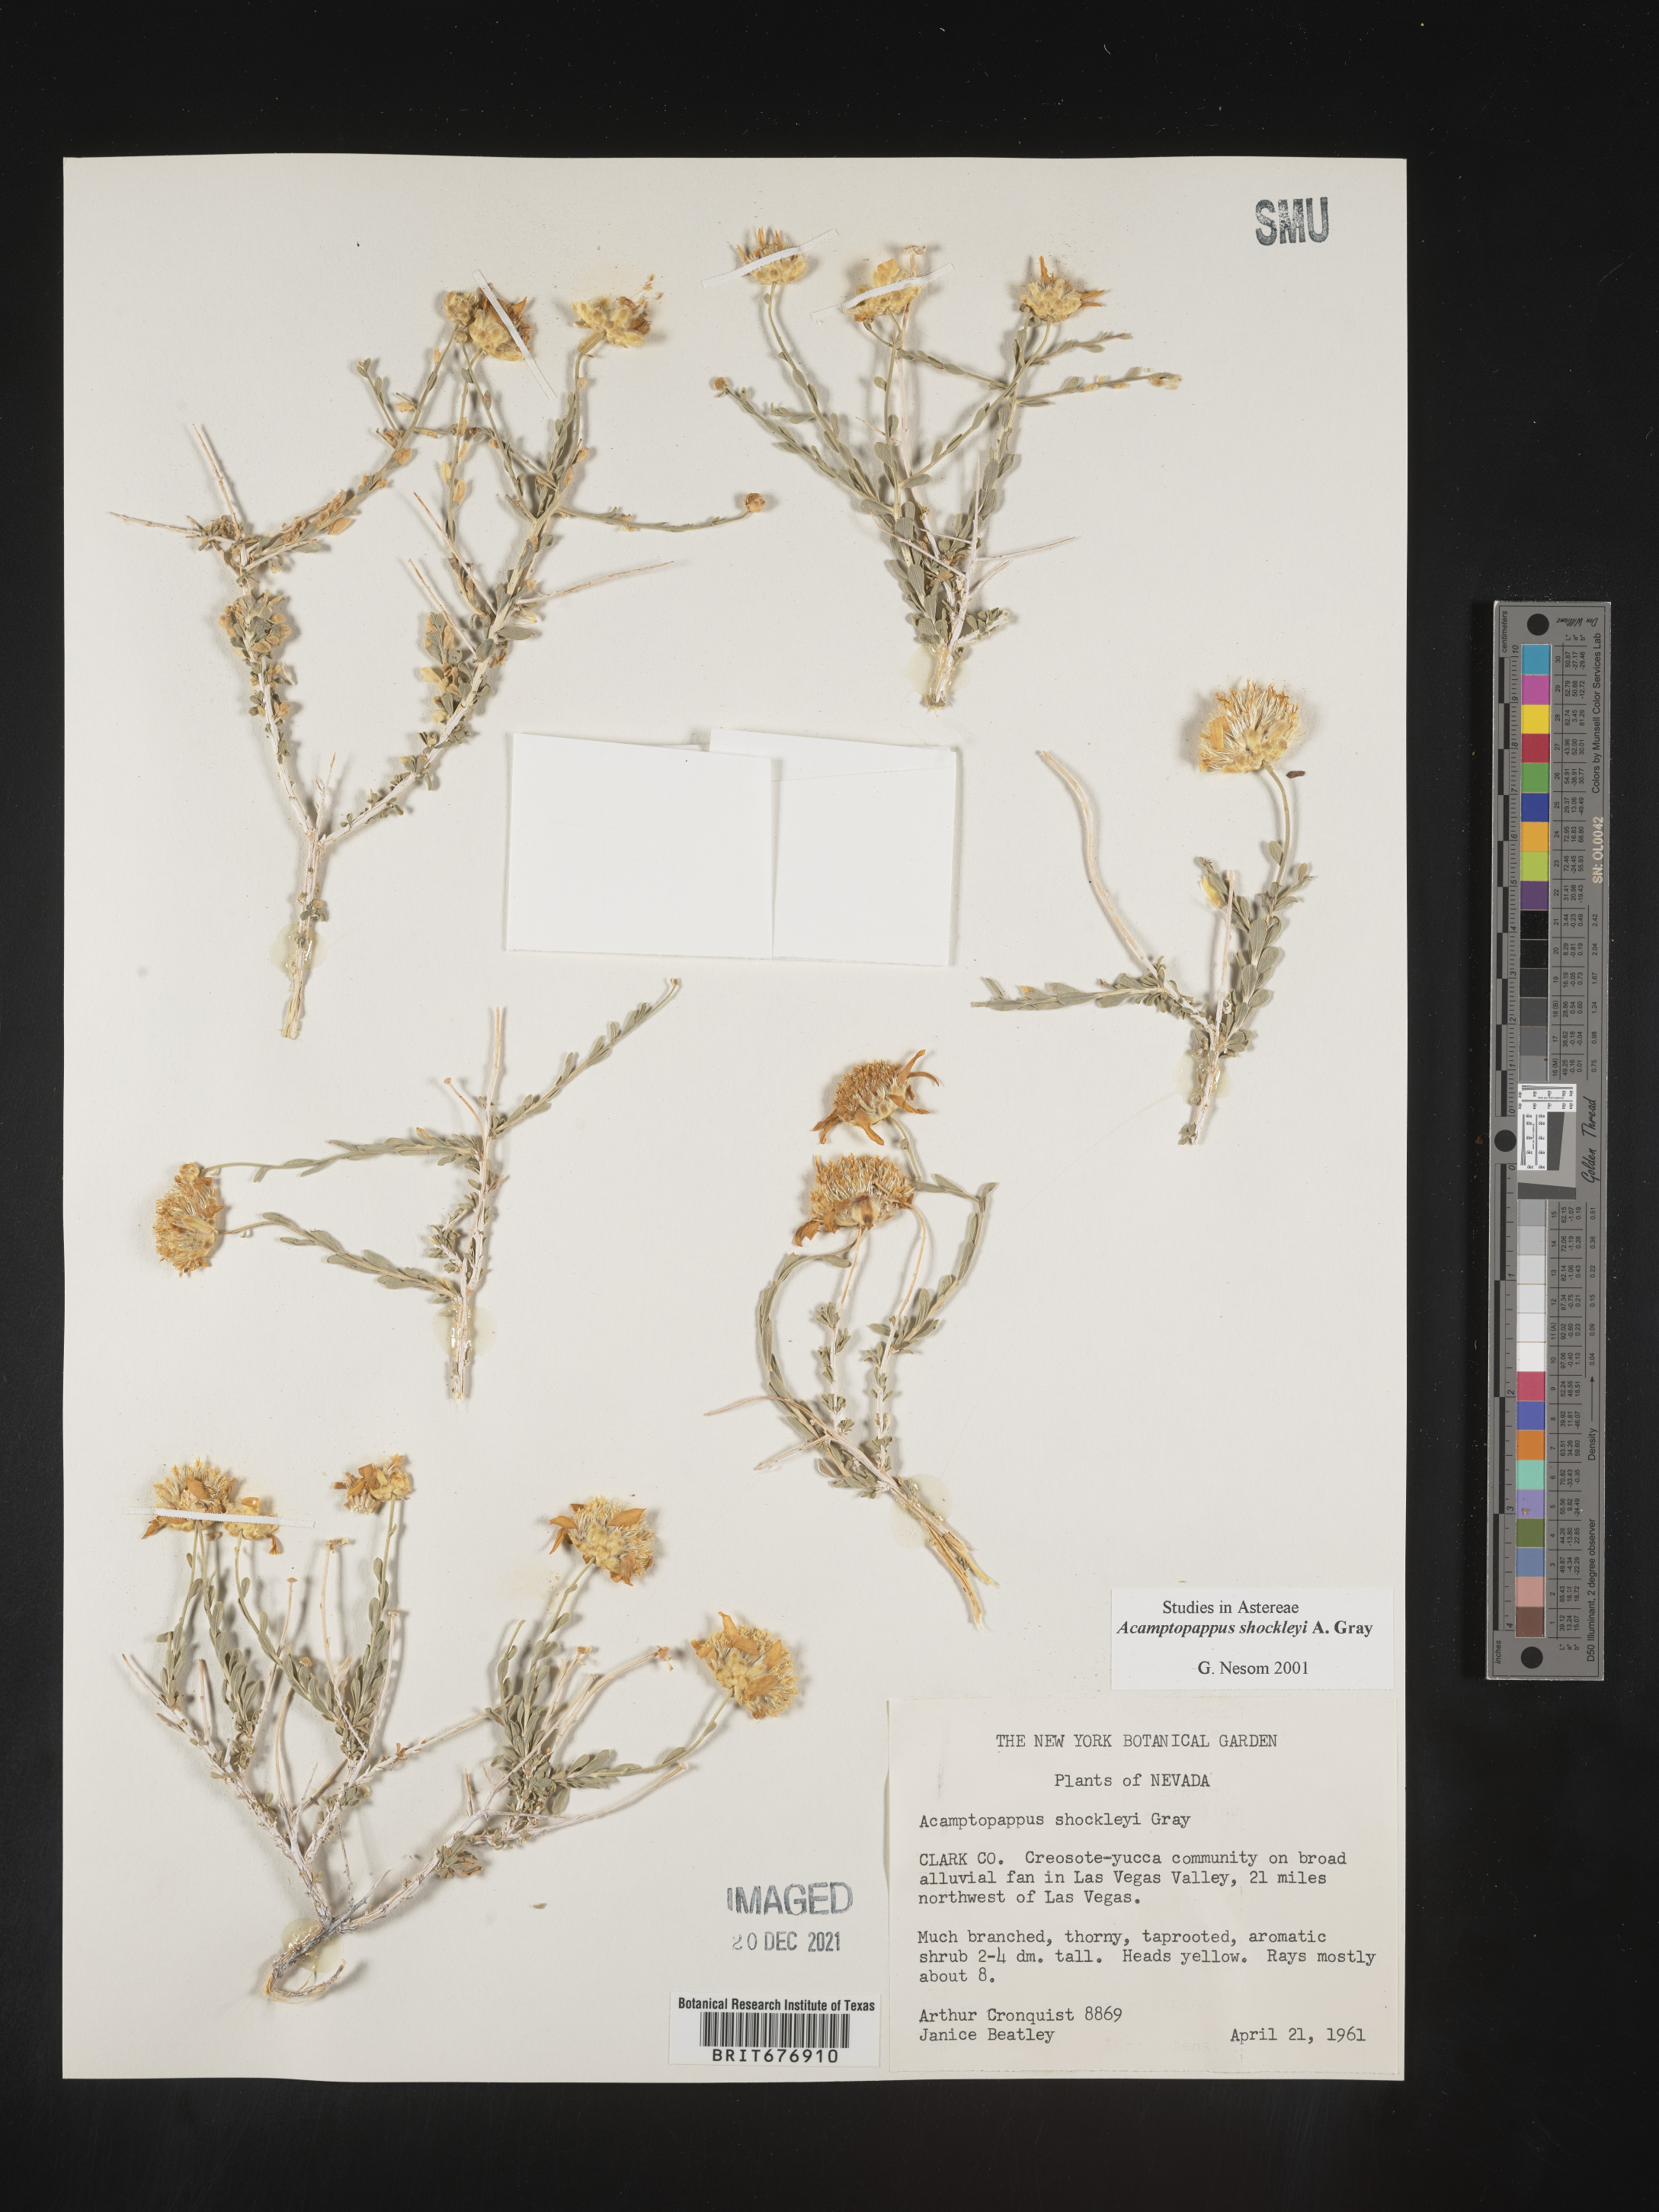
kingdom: Plantae
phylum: Tracheophyta
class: Magnoliopsida
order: Asterales
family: Asteraceae
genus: Acamptopappus
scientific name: Acamptopappus
